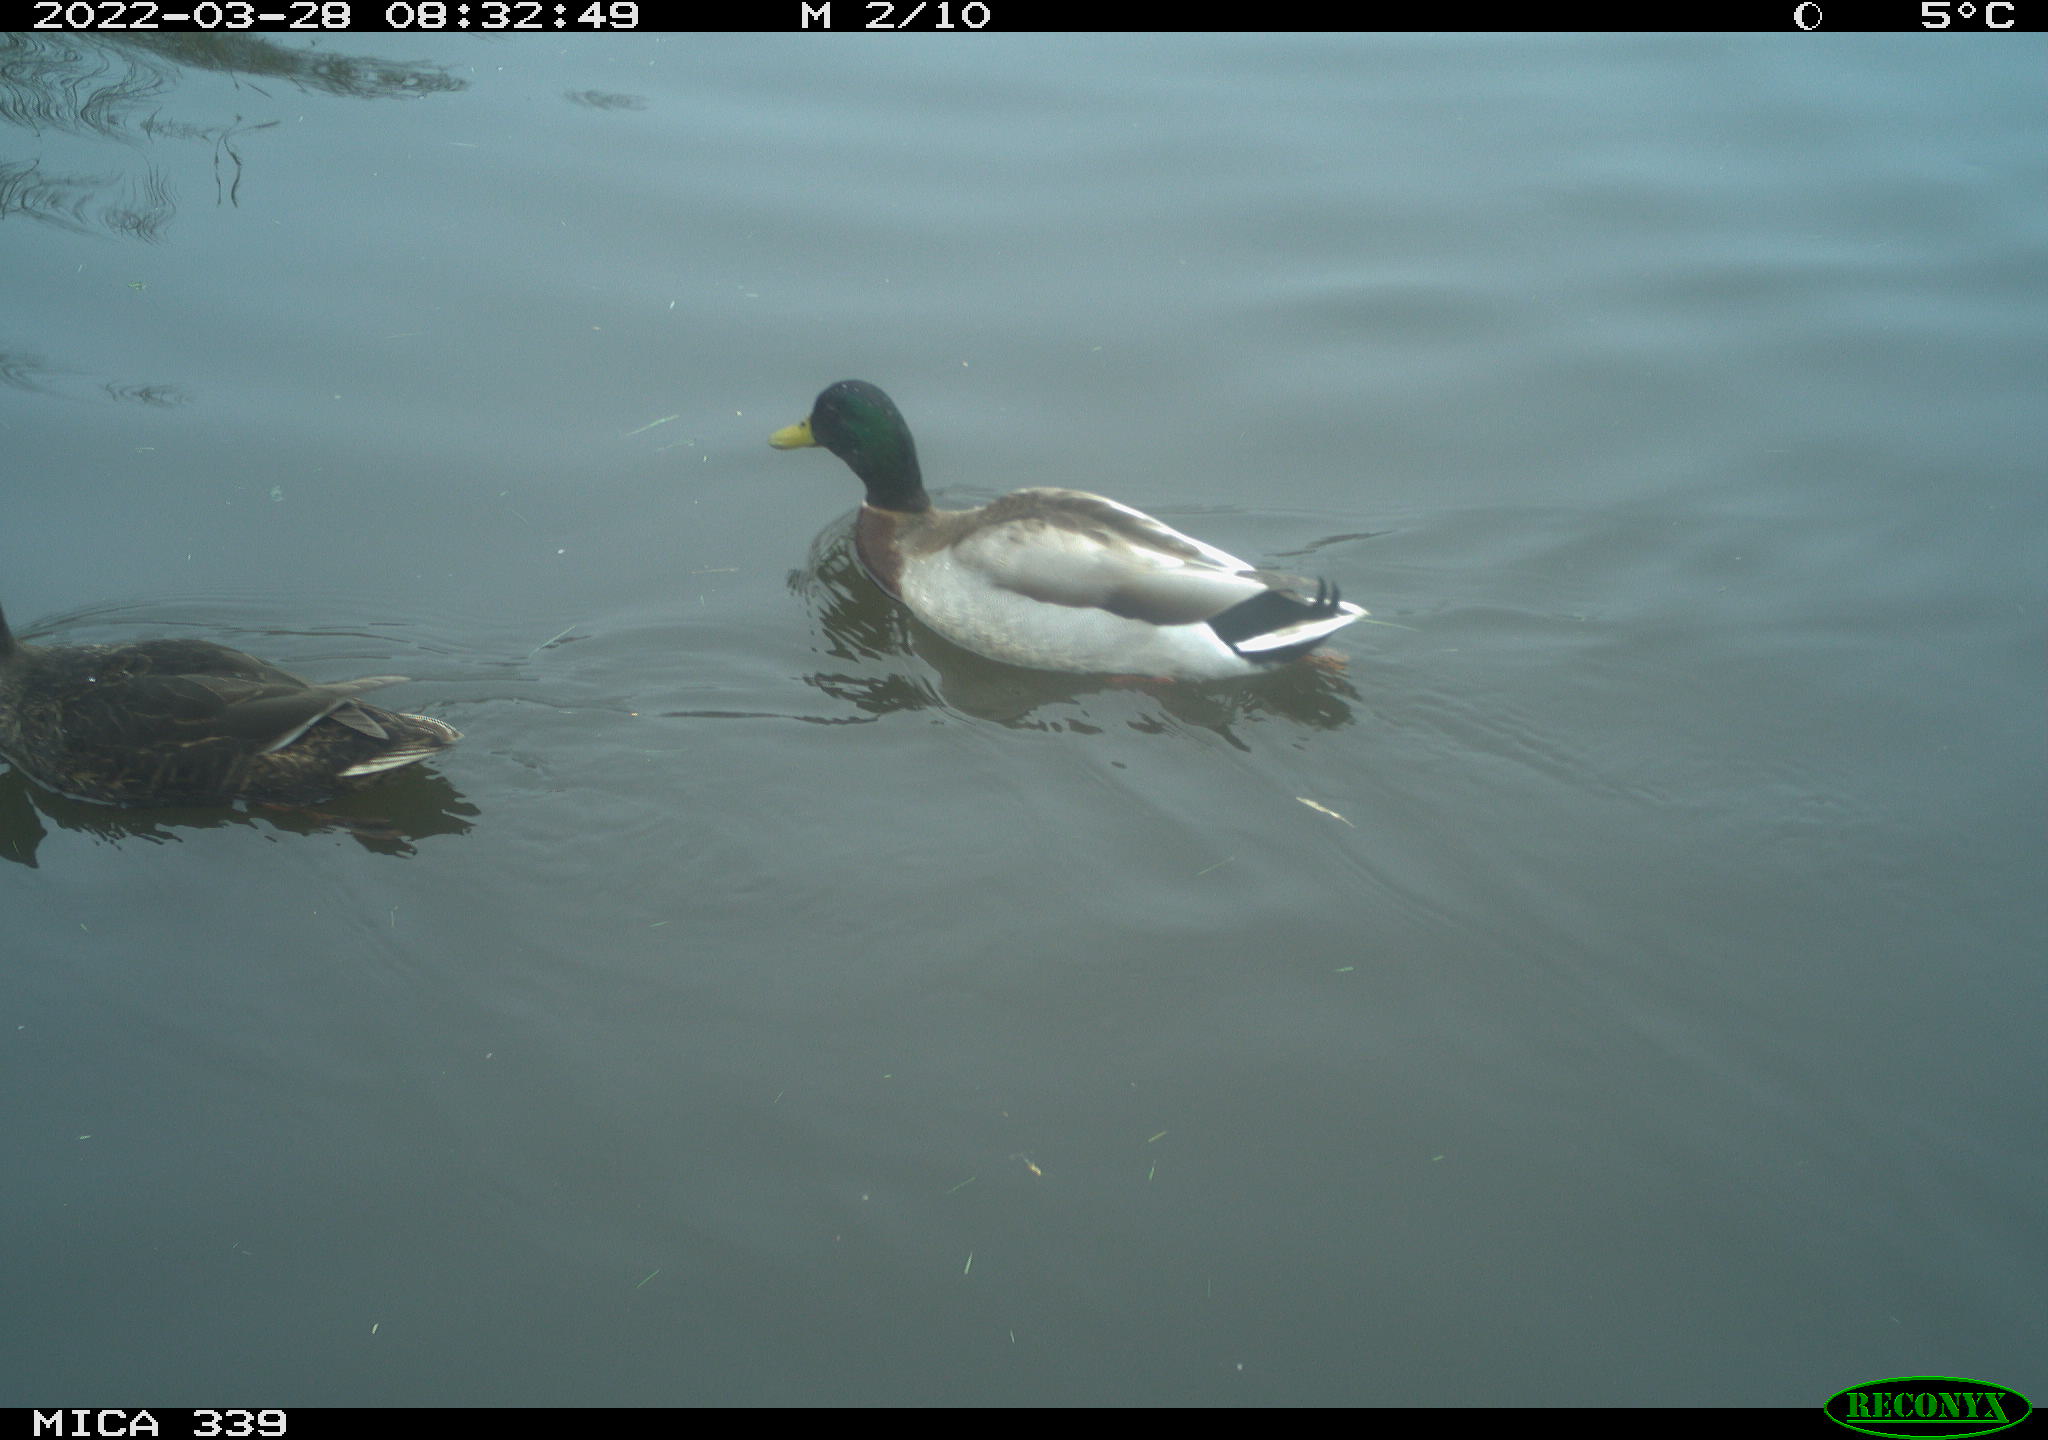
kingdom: Animalia
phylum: Chordata
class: Aves
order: Anseriformes
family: Anatidae
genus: Anas
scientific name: Anas platyrhynchos
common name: Mallard
